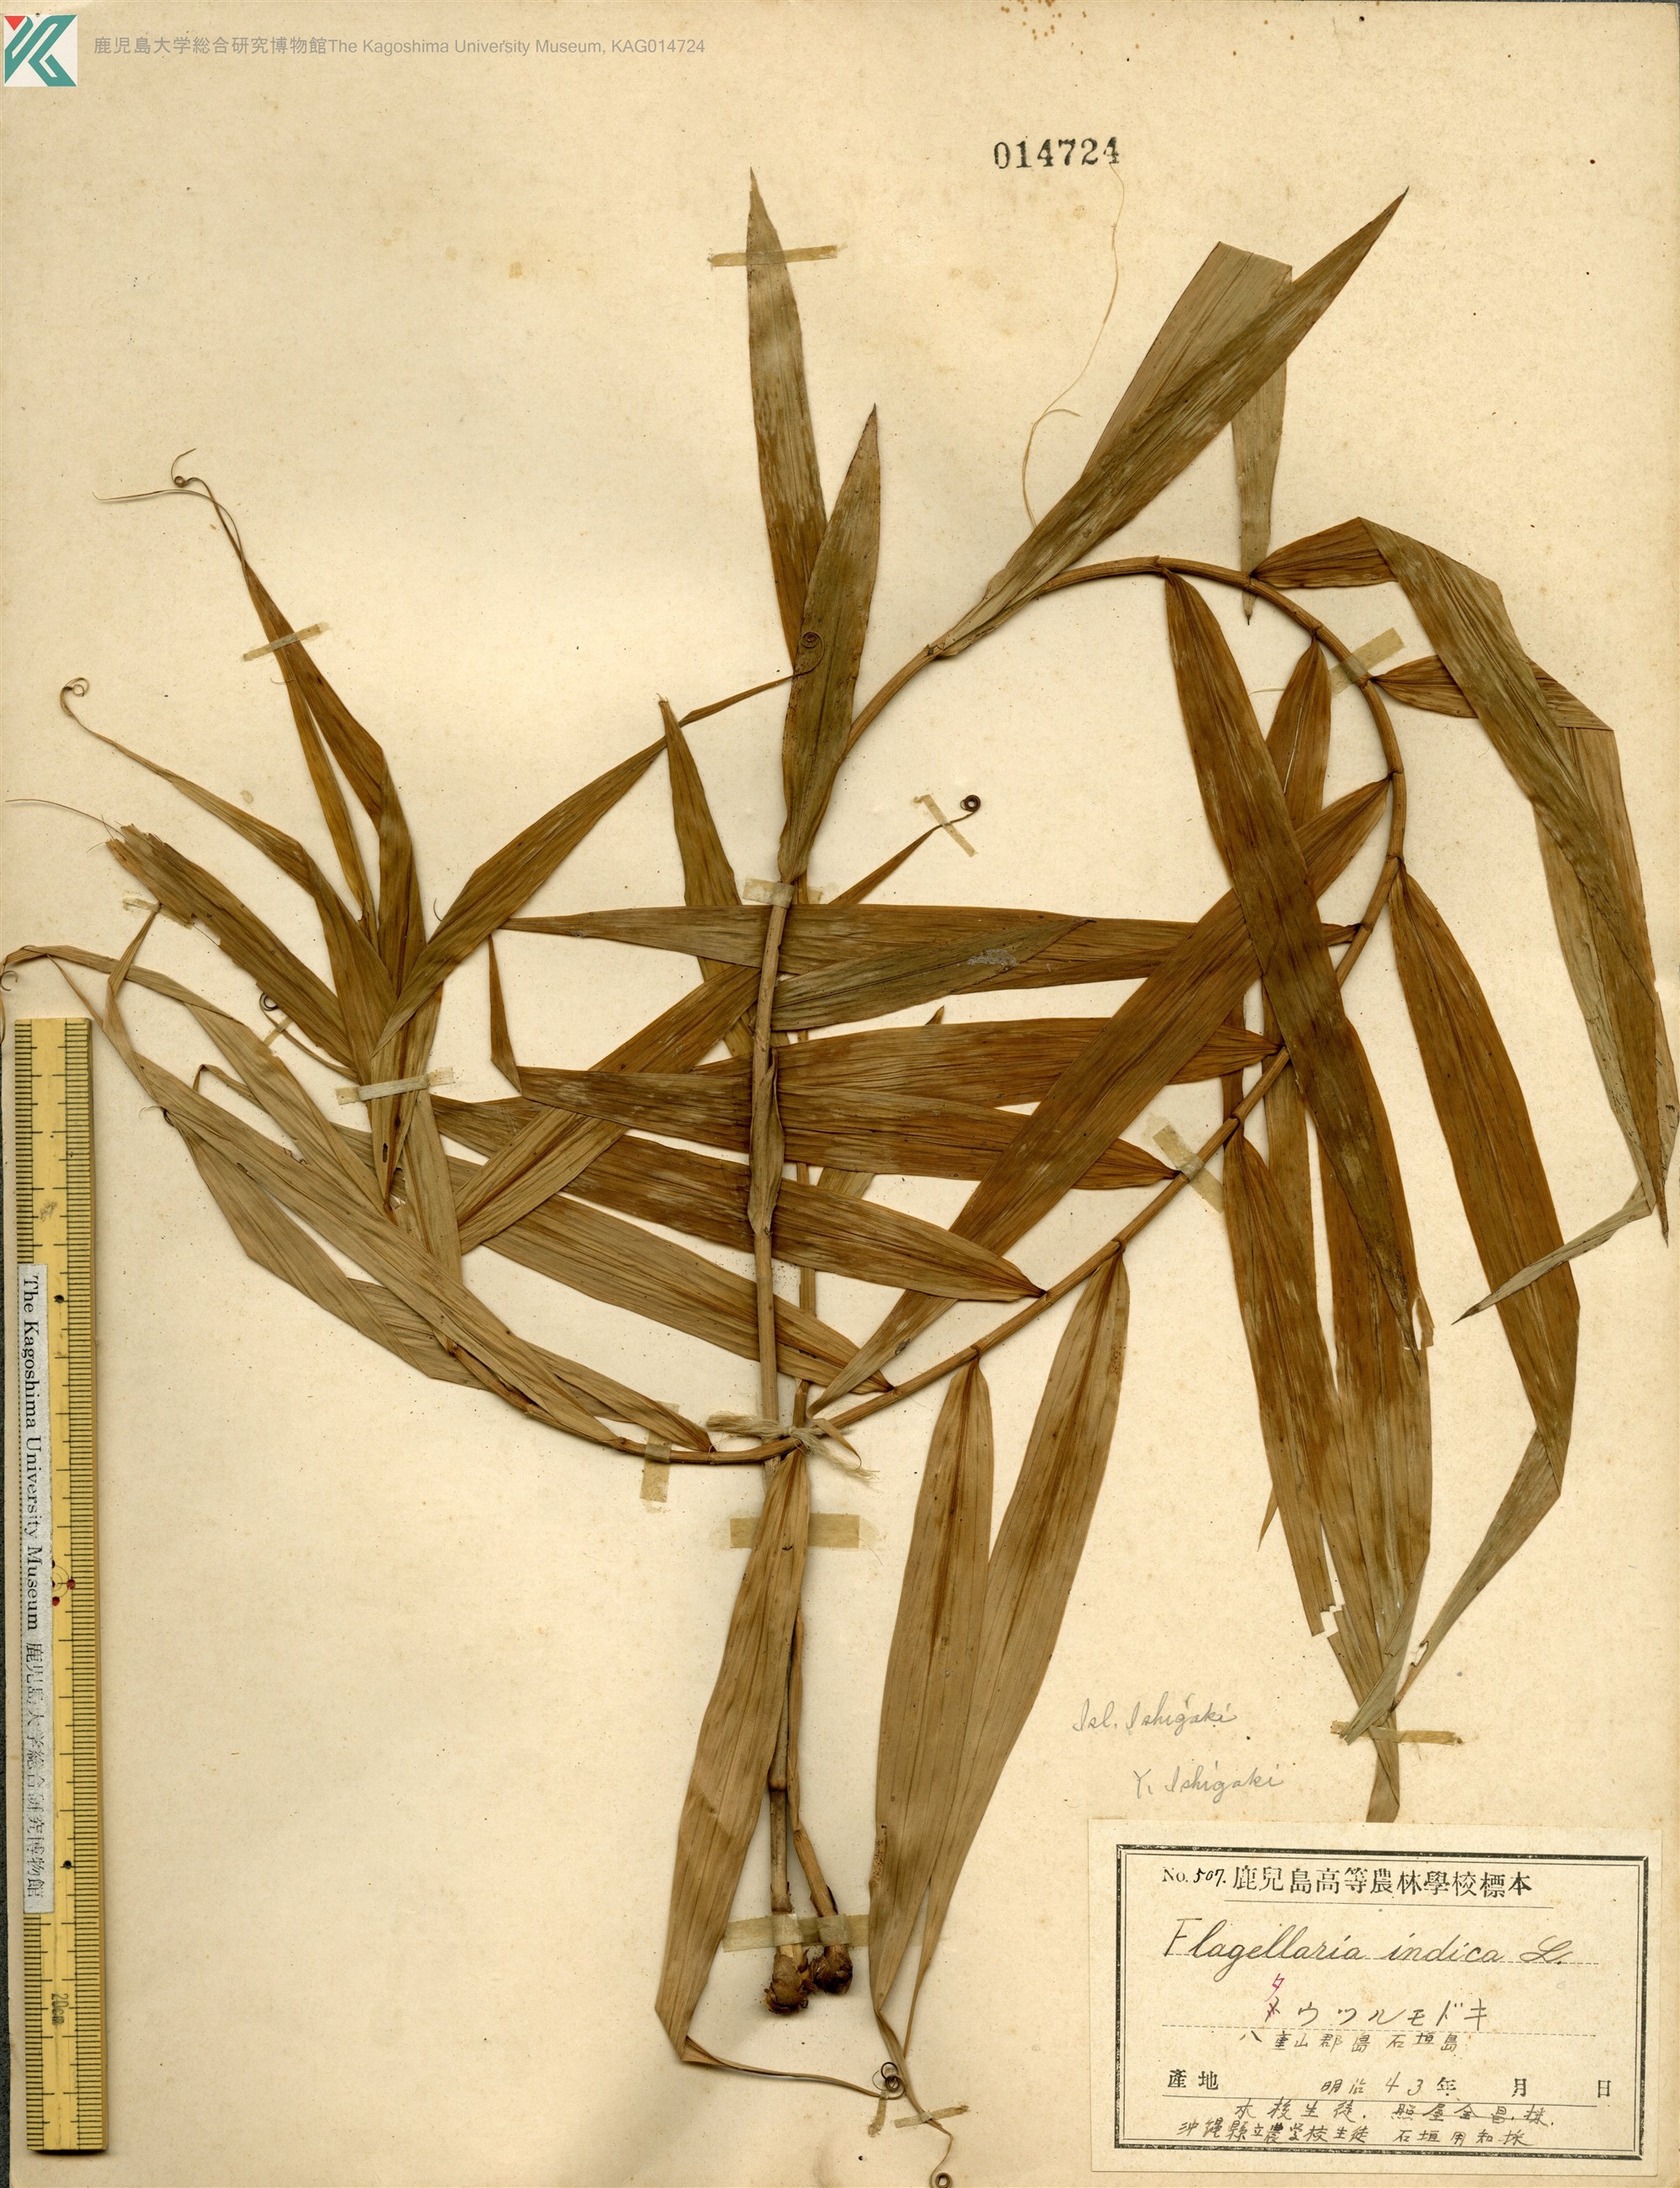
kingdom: Plantae
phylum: Tracheophyta
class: Liliopsida
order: Poales
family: Flagellariaceae
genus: Flagellaria
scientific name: Flagellaria indica
